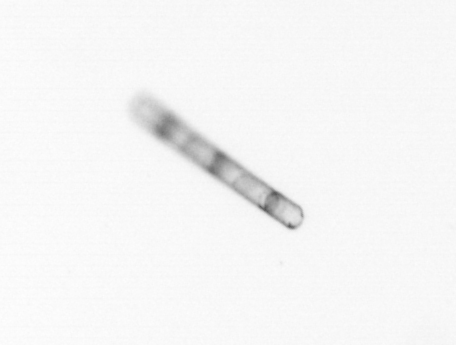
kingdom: Chromista
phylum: Ochrophyta
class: Bacillariophyceae
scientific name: Bacillariophyceae
